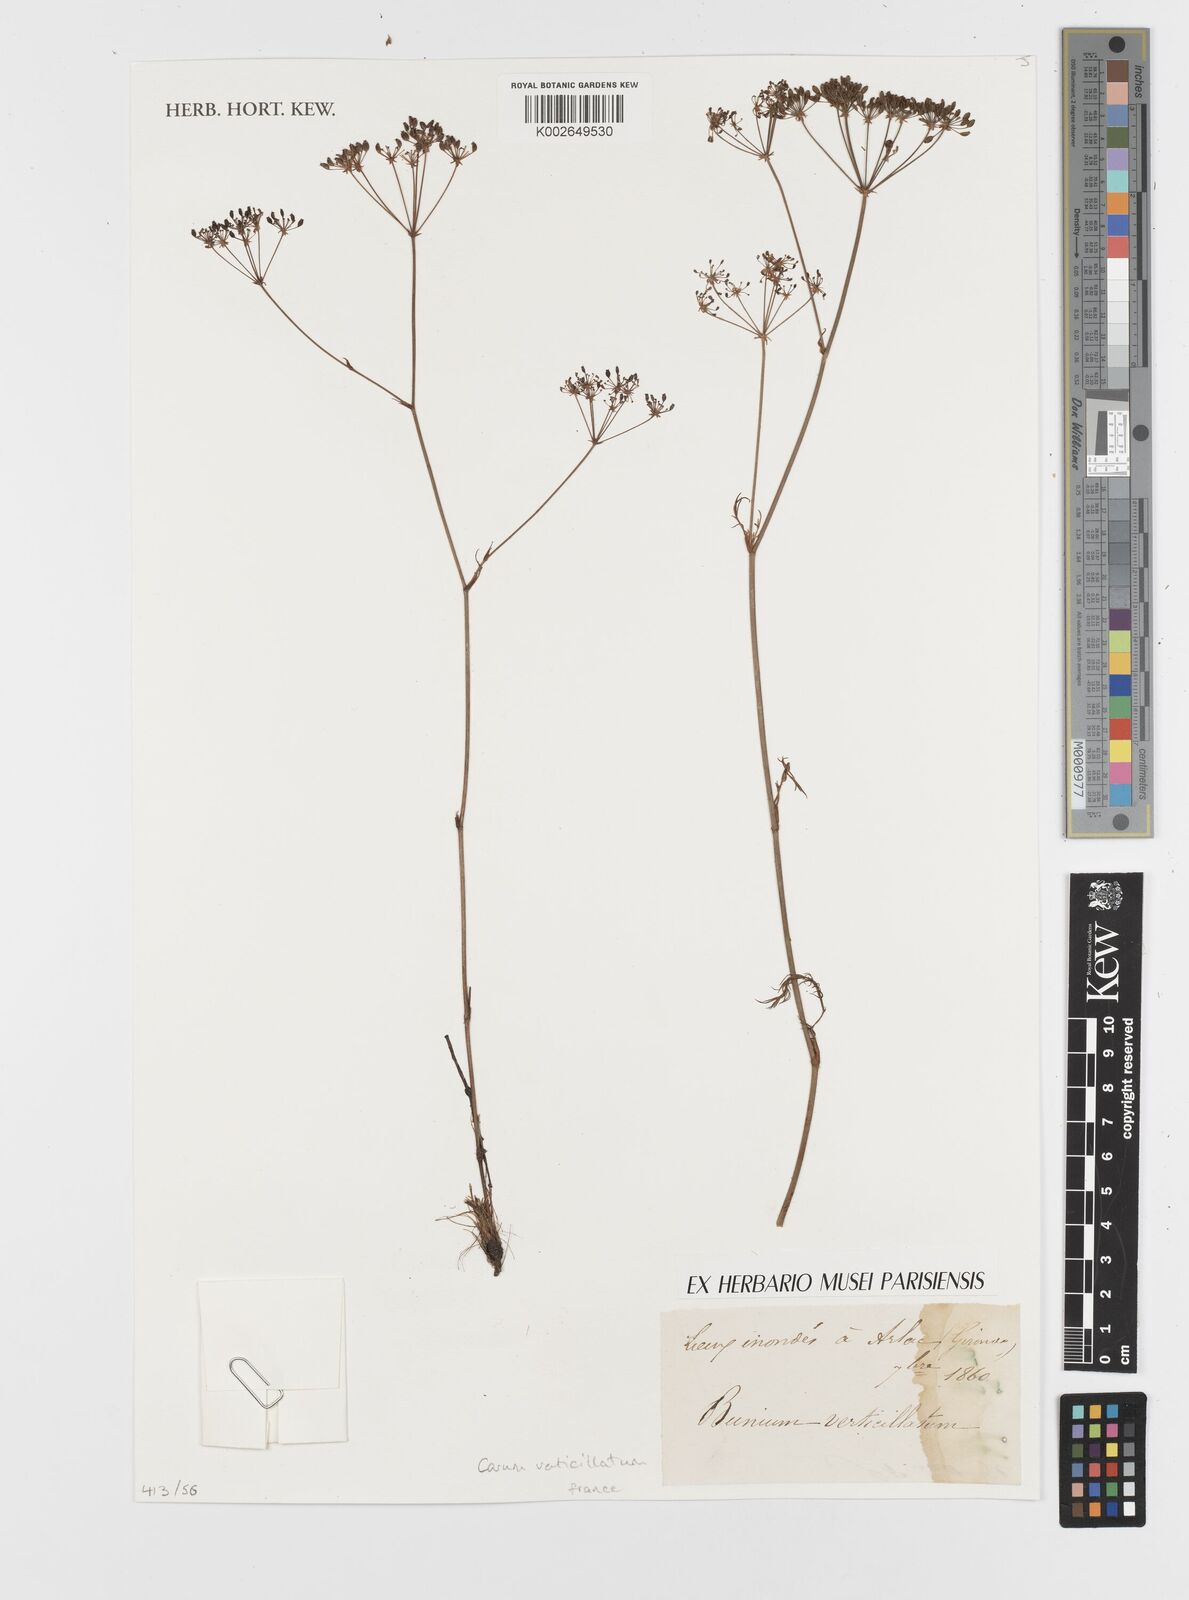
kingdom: Plantae
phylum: Tracheophyta
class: Magnoliopsida
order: Apiales
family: Apiaceae
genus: Trocdaris
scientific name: Trocdaris verticillatum
